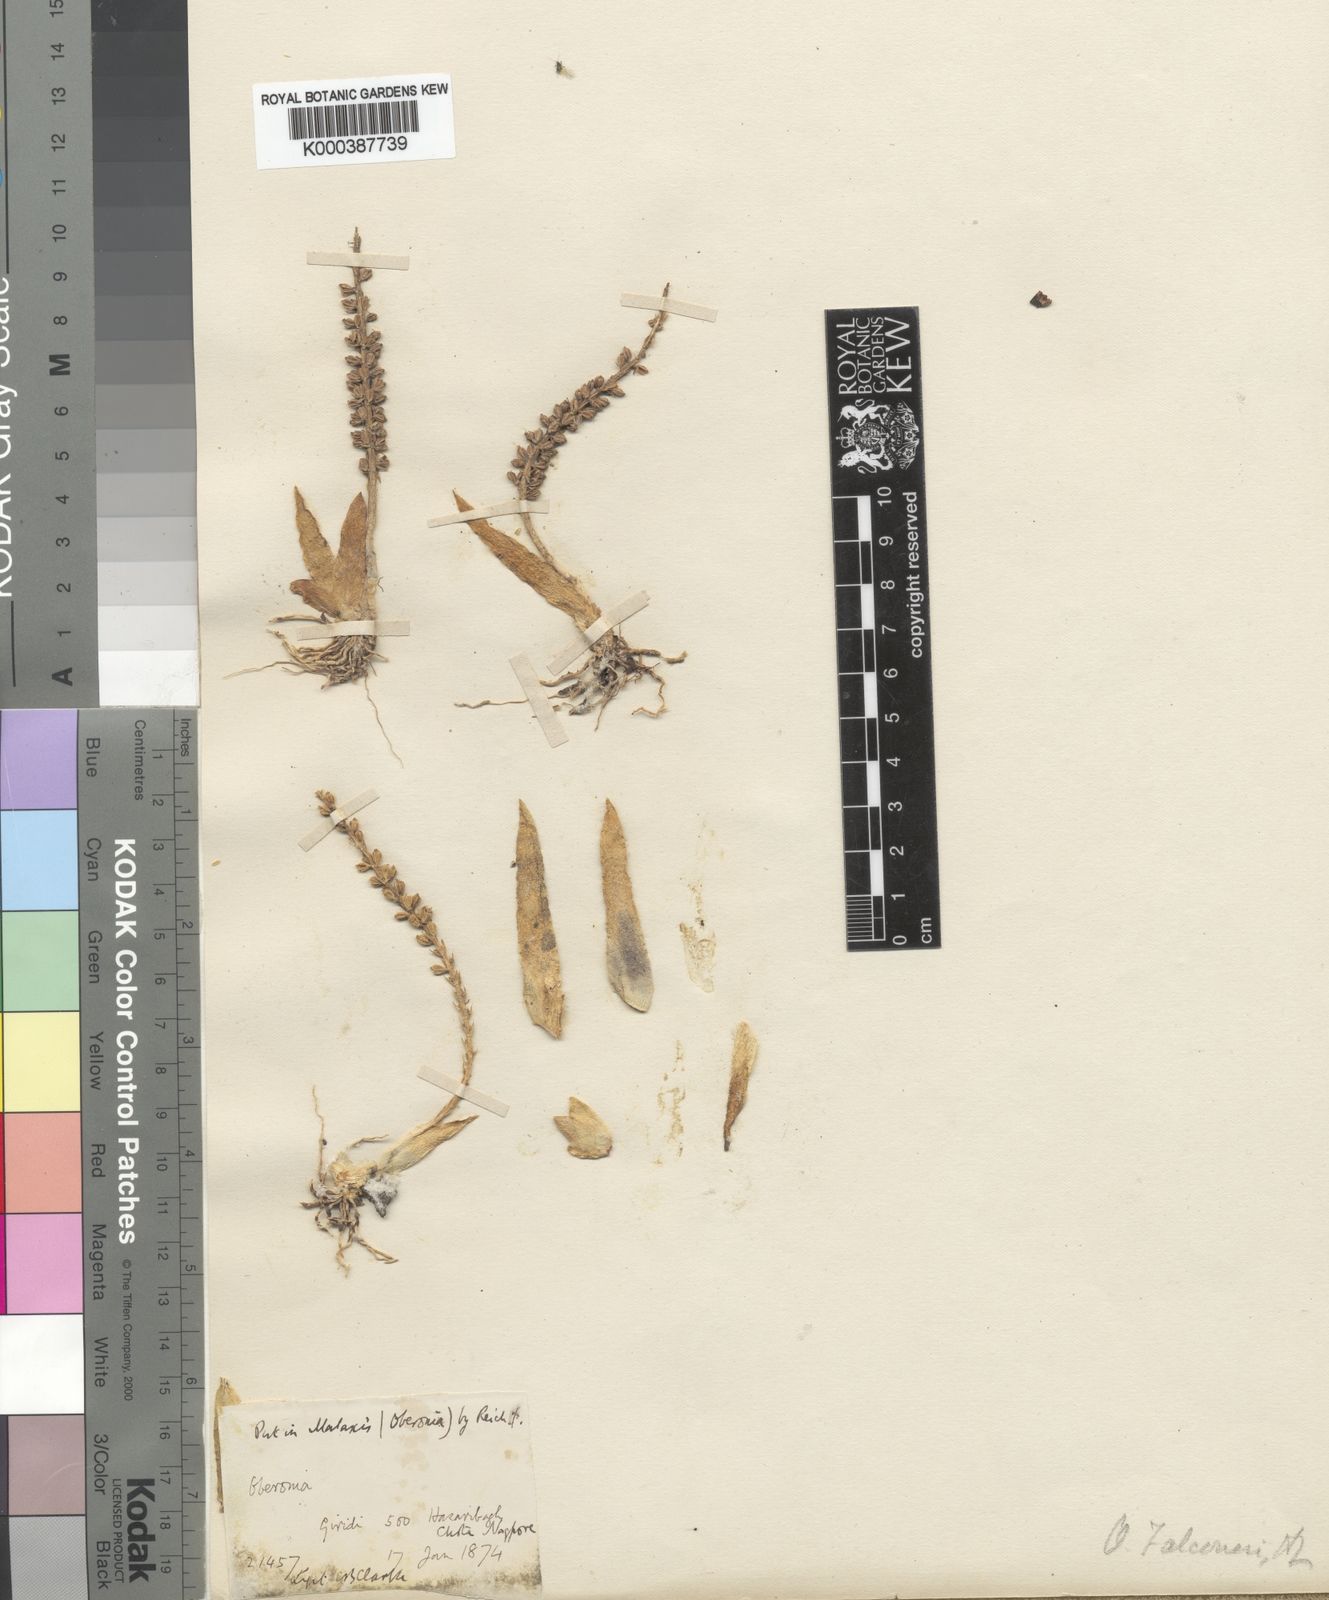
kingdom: Plantae
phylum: Tracheophyta
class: Liliopsida
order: Asparagales
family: Orchidaceae
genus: Oberonia
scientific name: Oberonia falconeri
